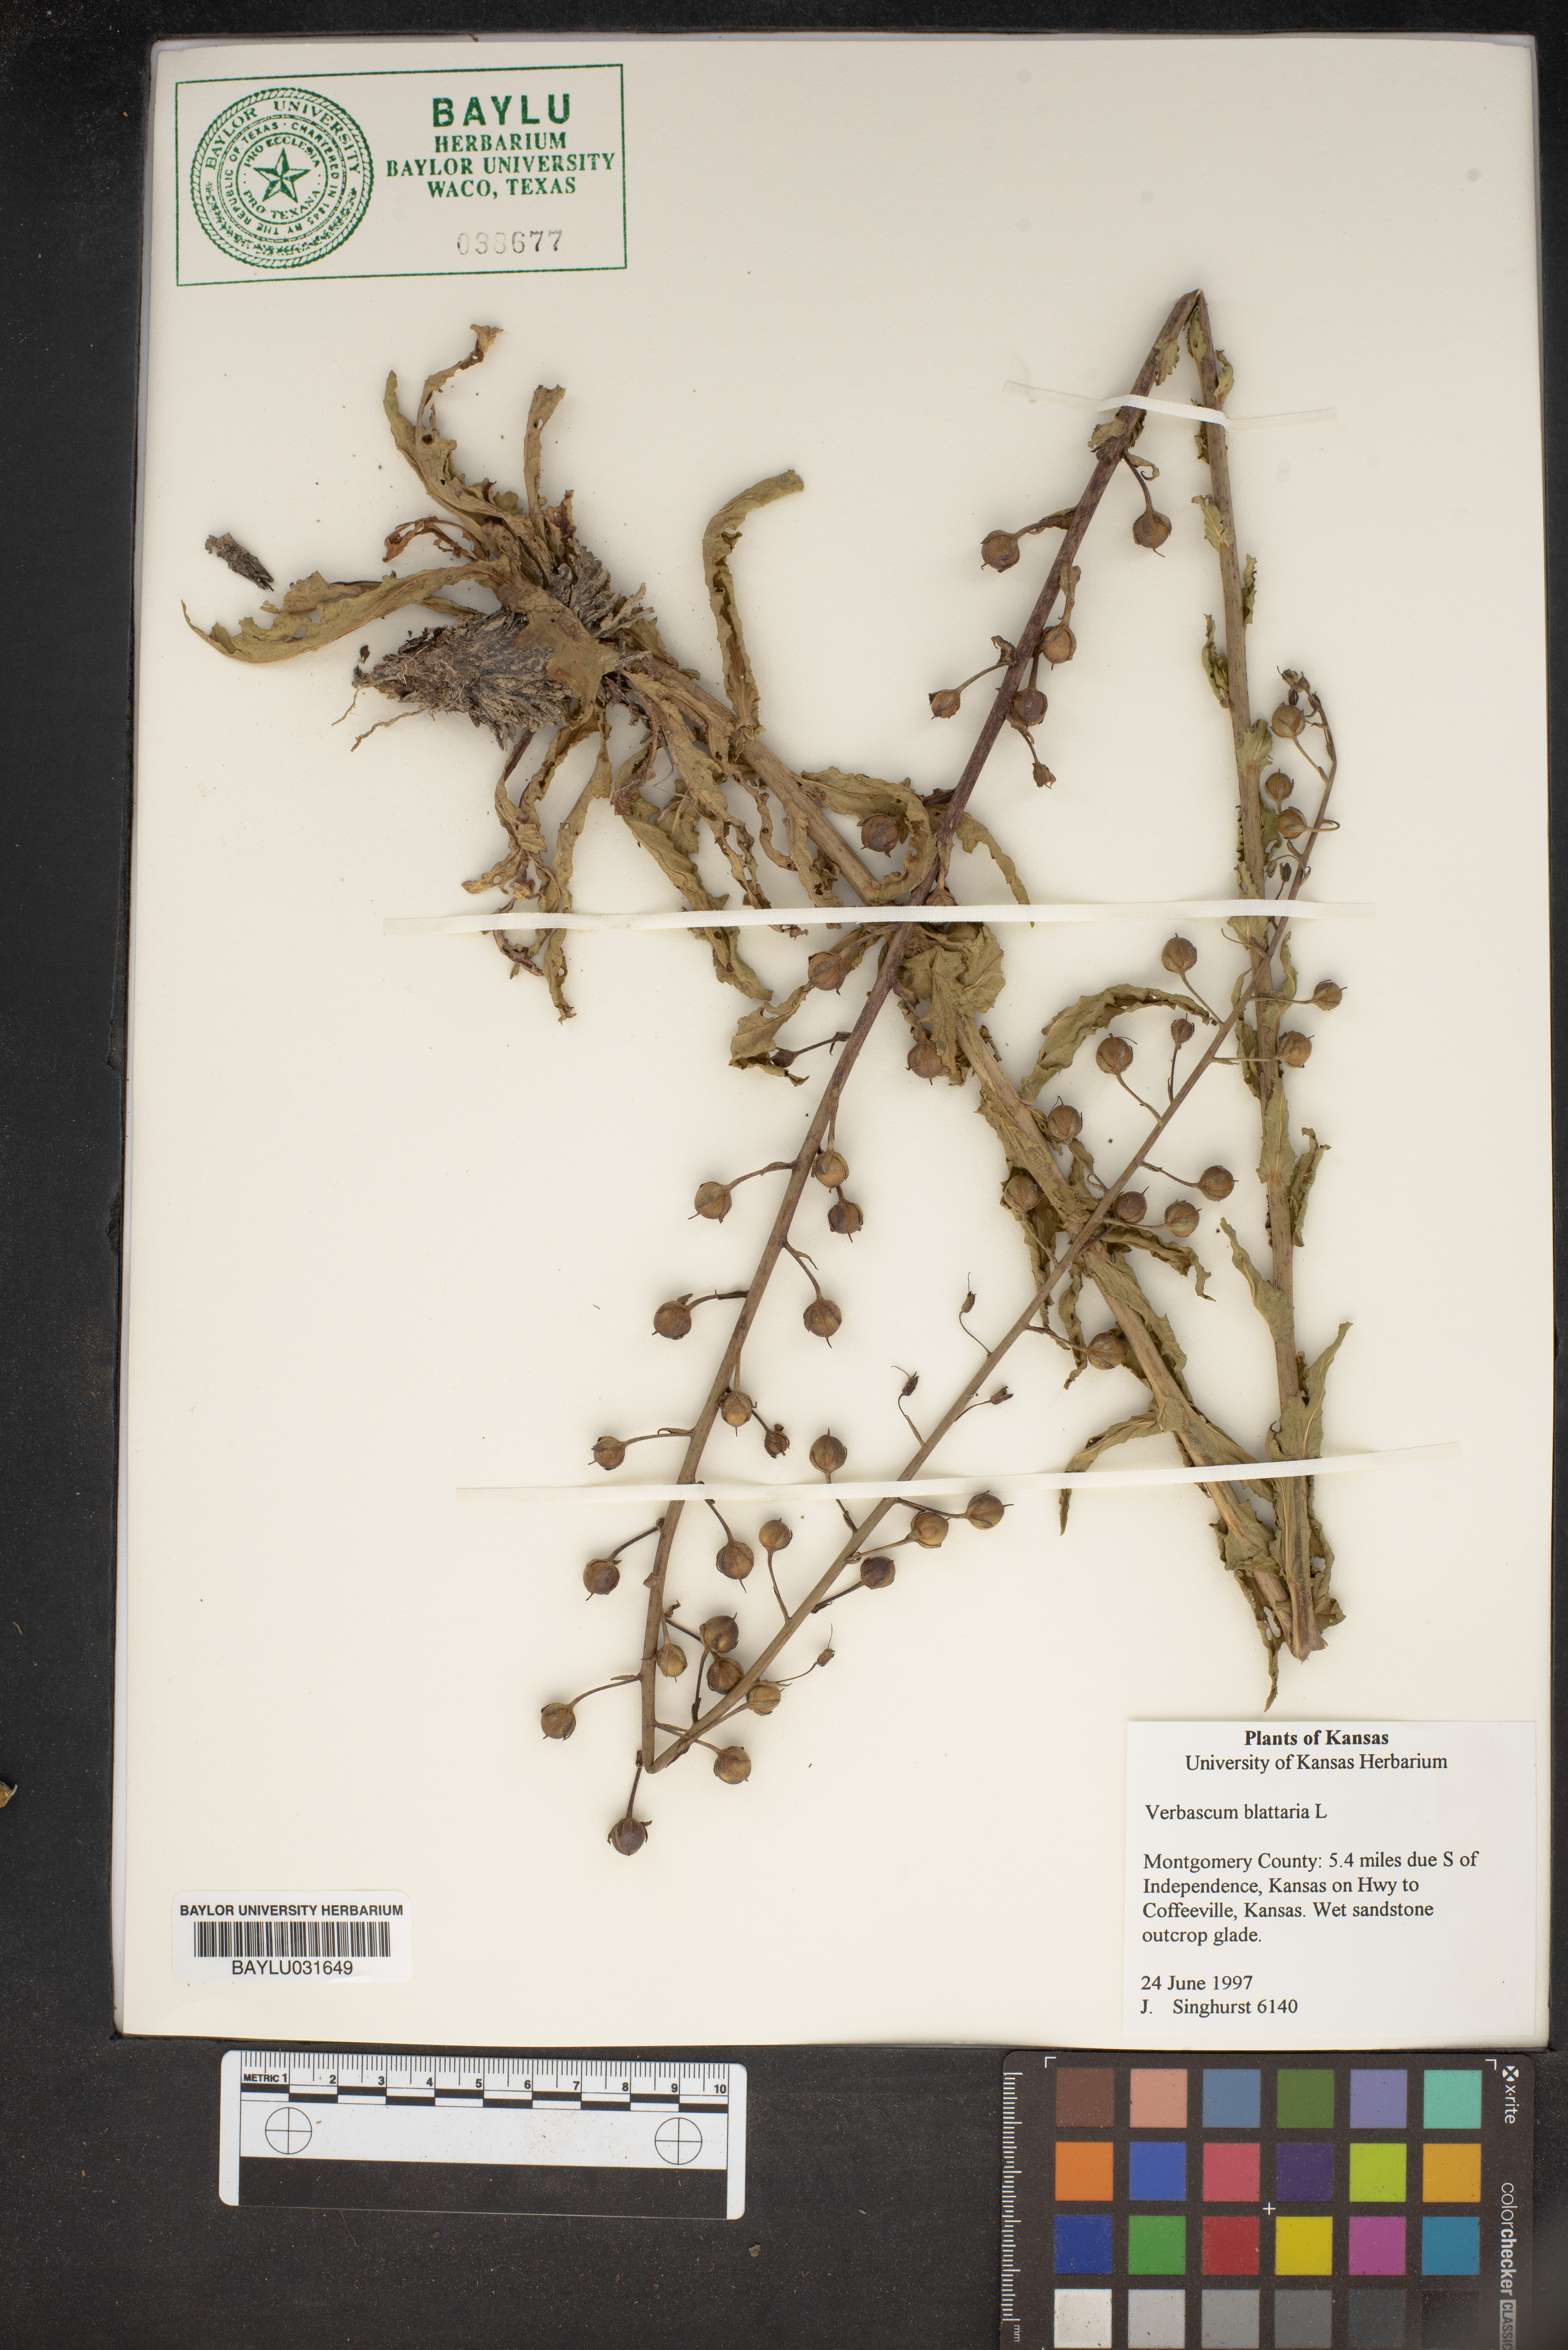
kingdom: Plantae
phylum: Tracheophyta
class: Magnoliopsida
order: Lamiales
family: Scrophulariaceae
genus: Verbascum
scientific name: Verbascum blattaria
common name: Moth mullein
